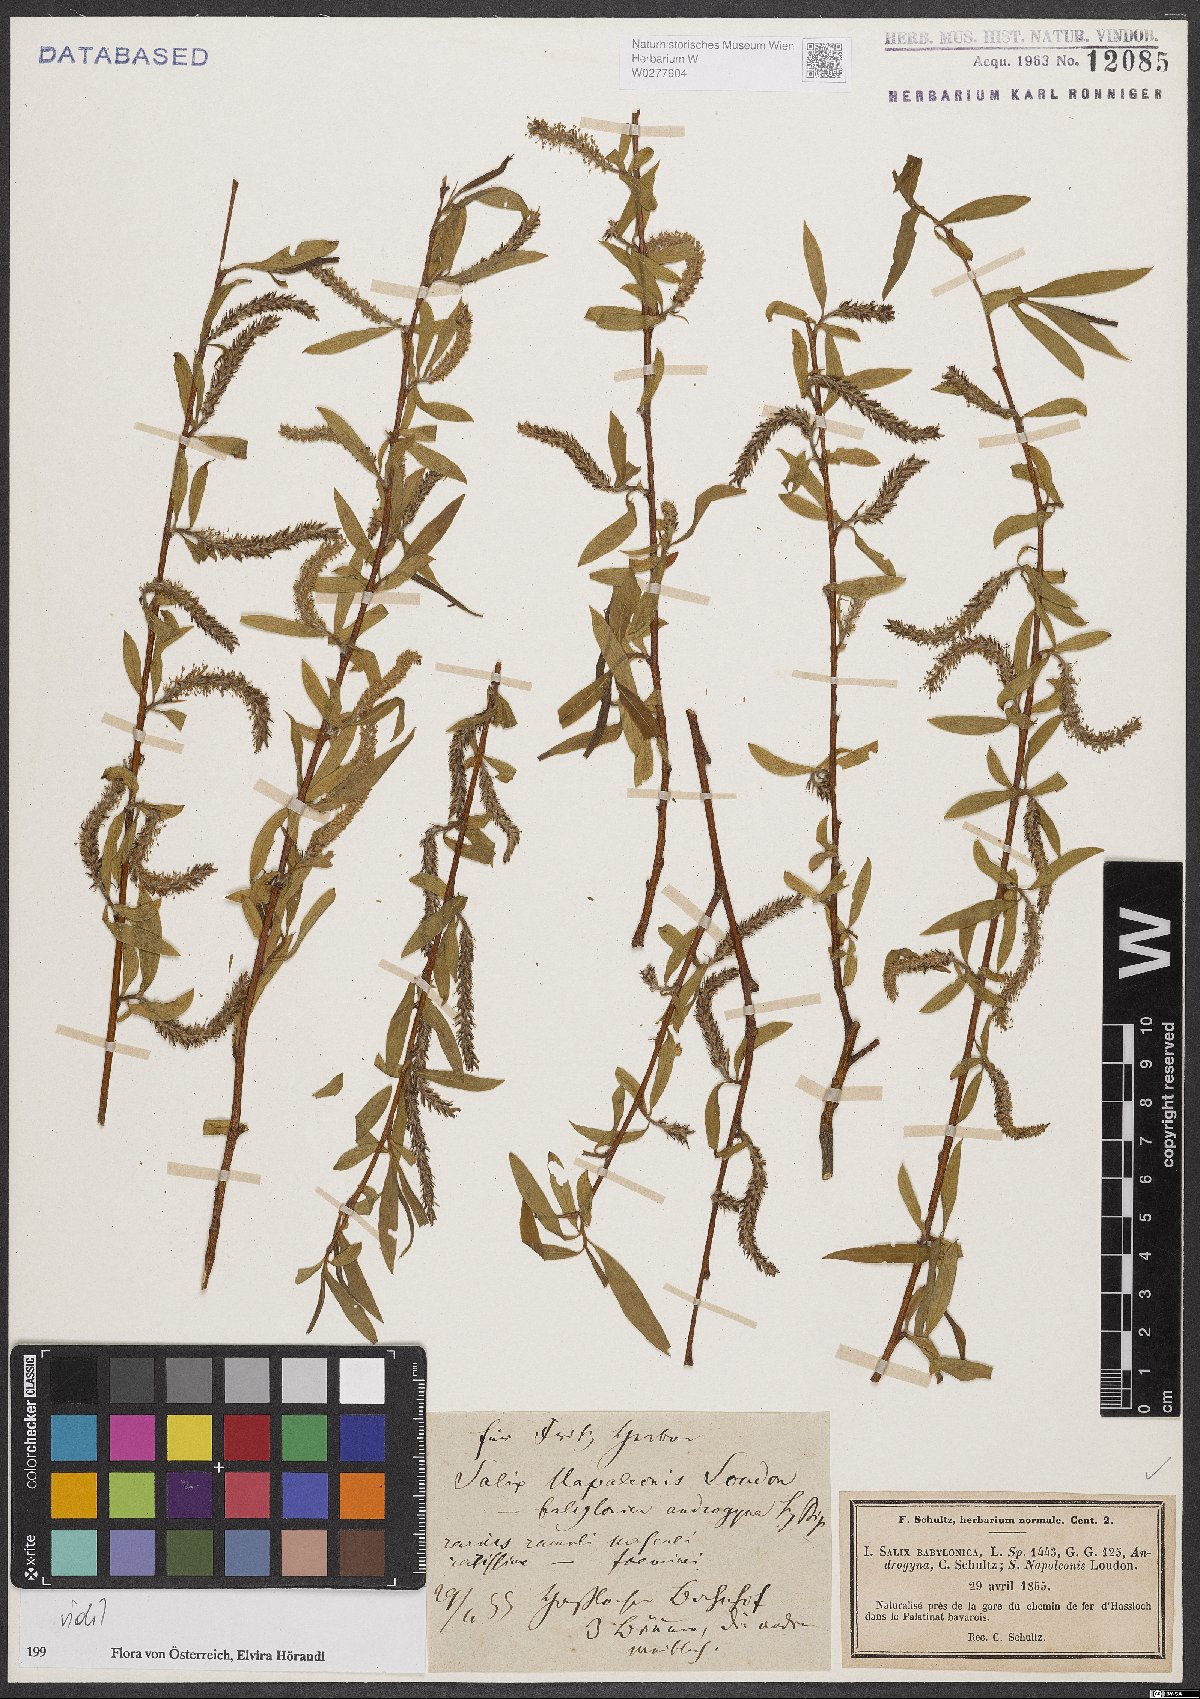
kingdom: Plantae
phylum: Tracheophyta
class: Magnoliopsida
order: Malpighiales
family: Salicaceae
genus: Salix
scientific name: Salix babylonica
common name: Weeping willow
